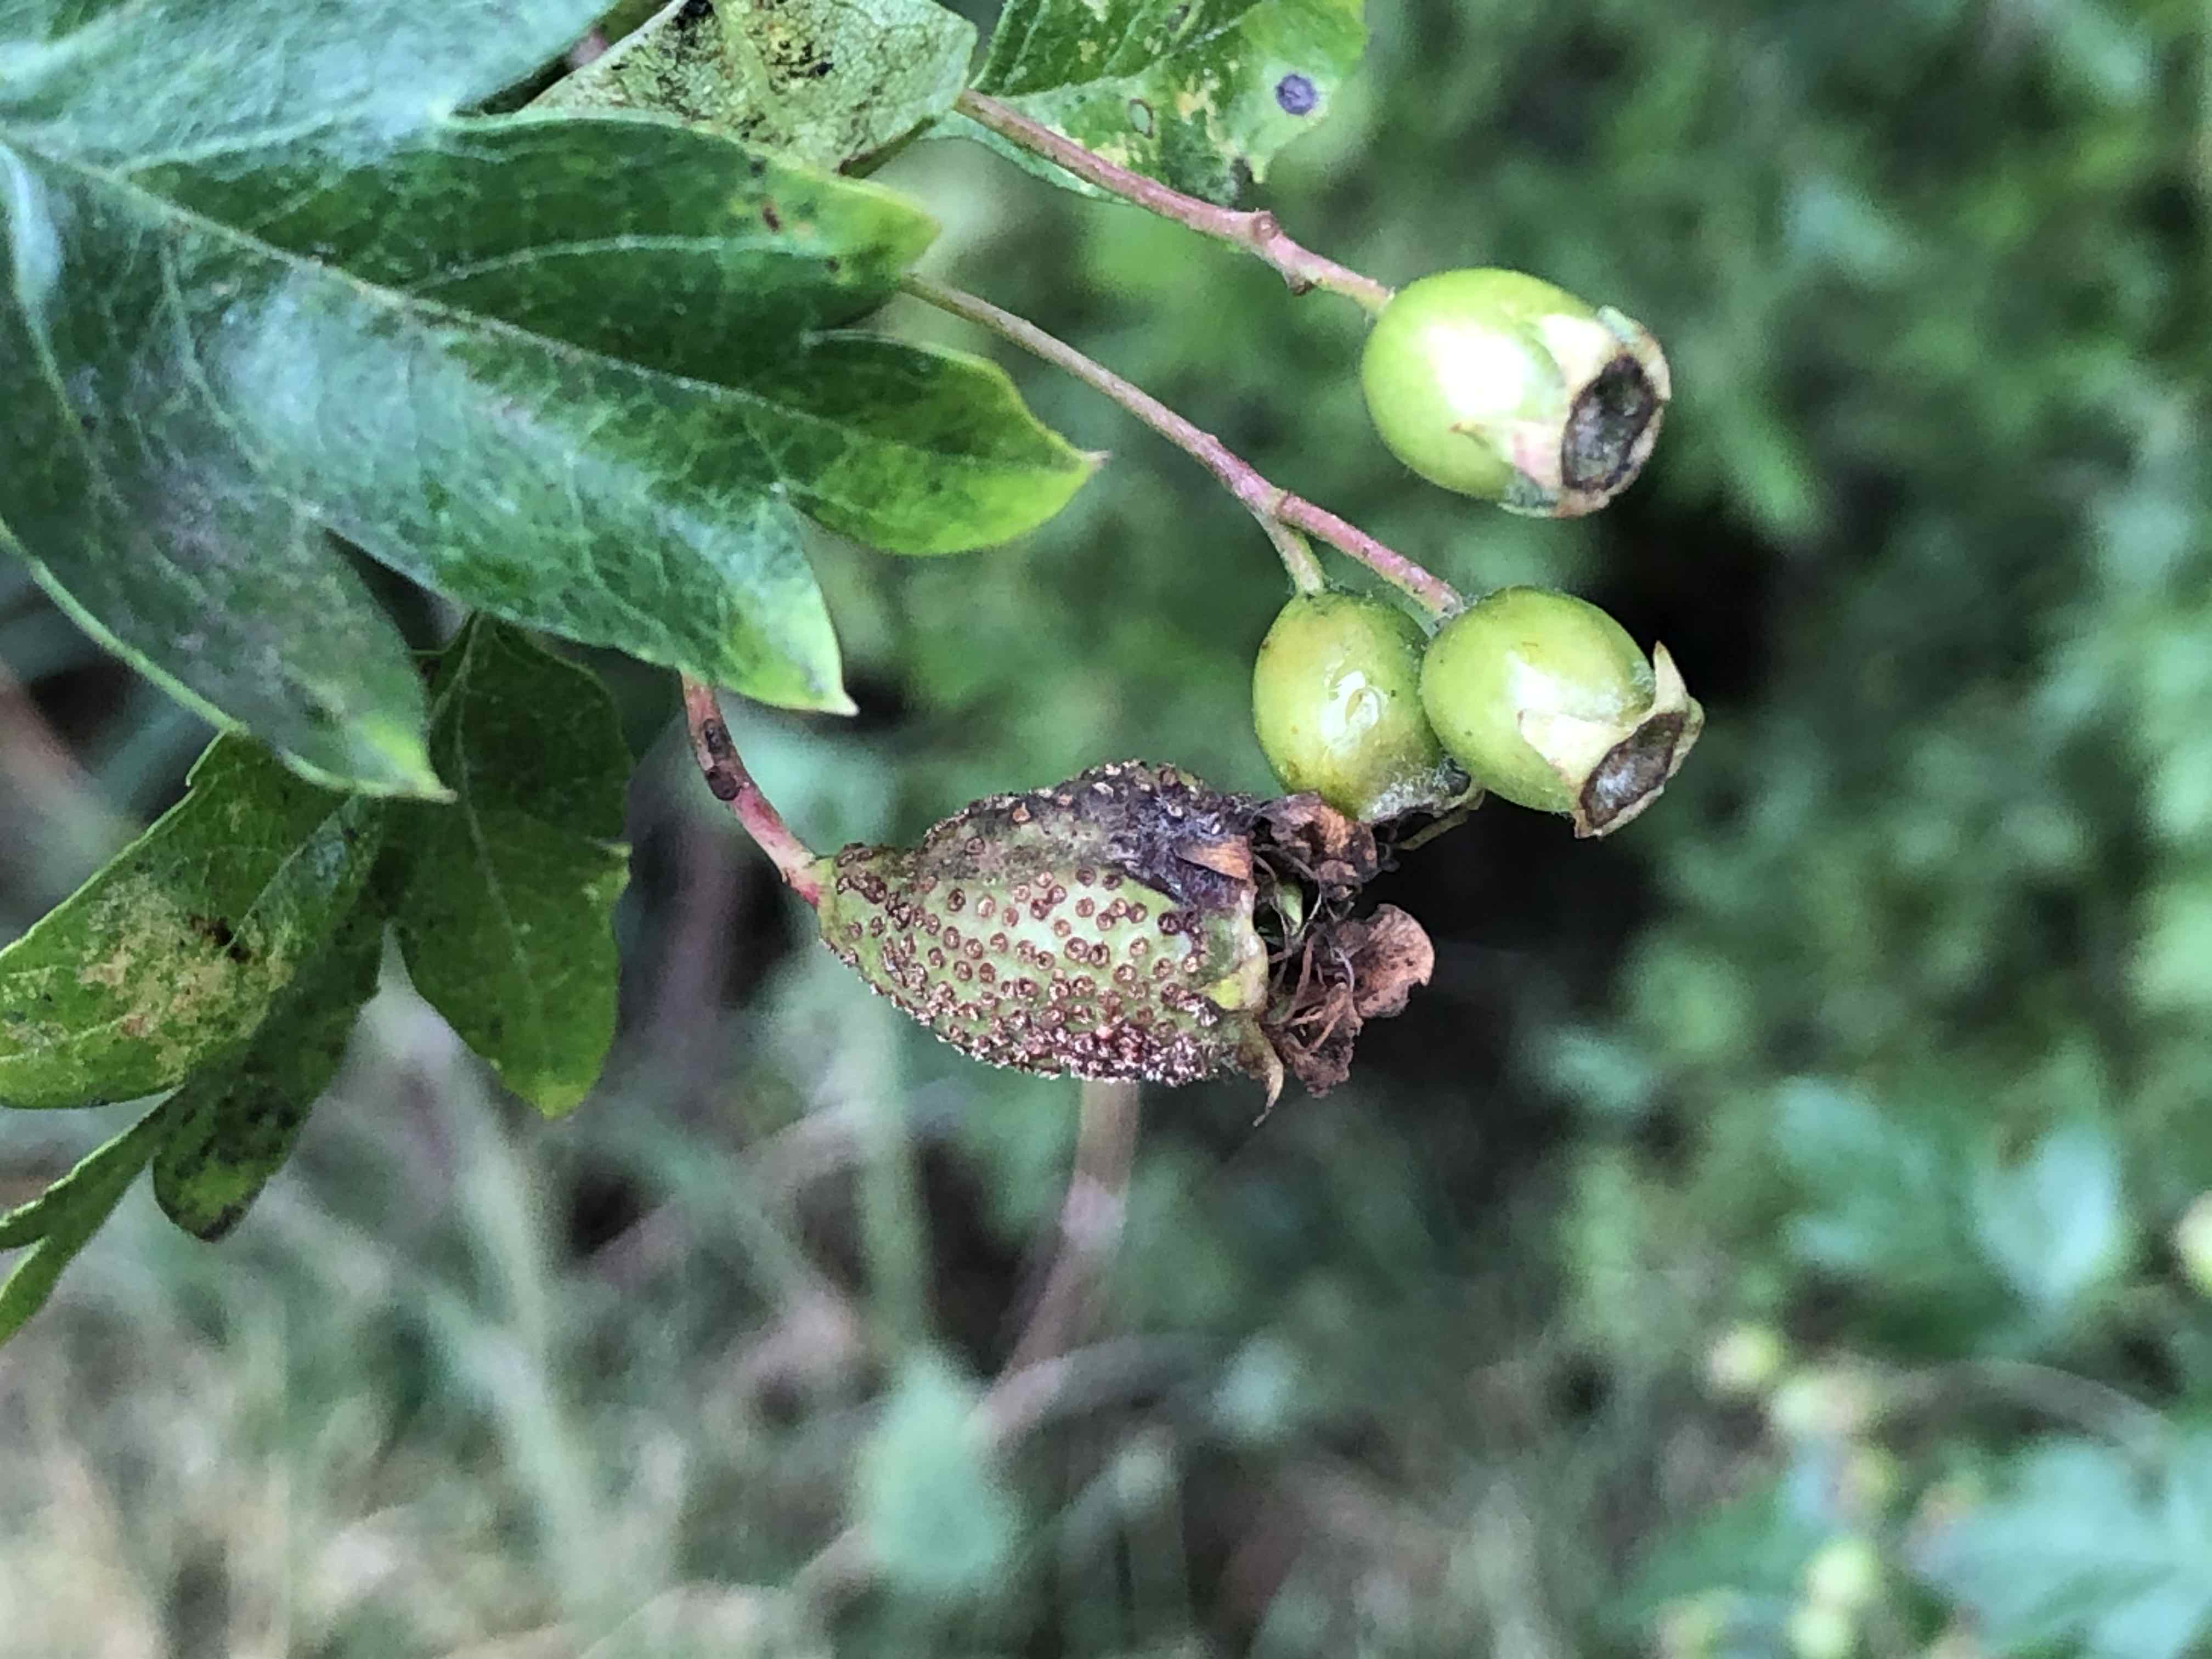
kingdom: Fungi
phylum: Basidiomycota
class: Pucciniomycetes
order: Pucciniales
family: Gymnosporangiaceae
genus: Gymnosporangium
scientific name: Gymnosporangium
